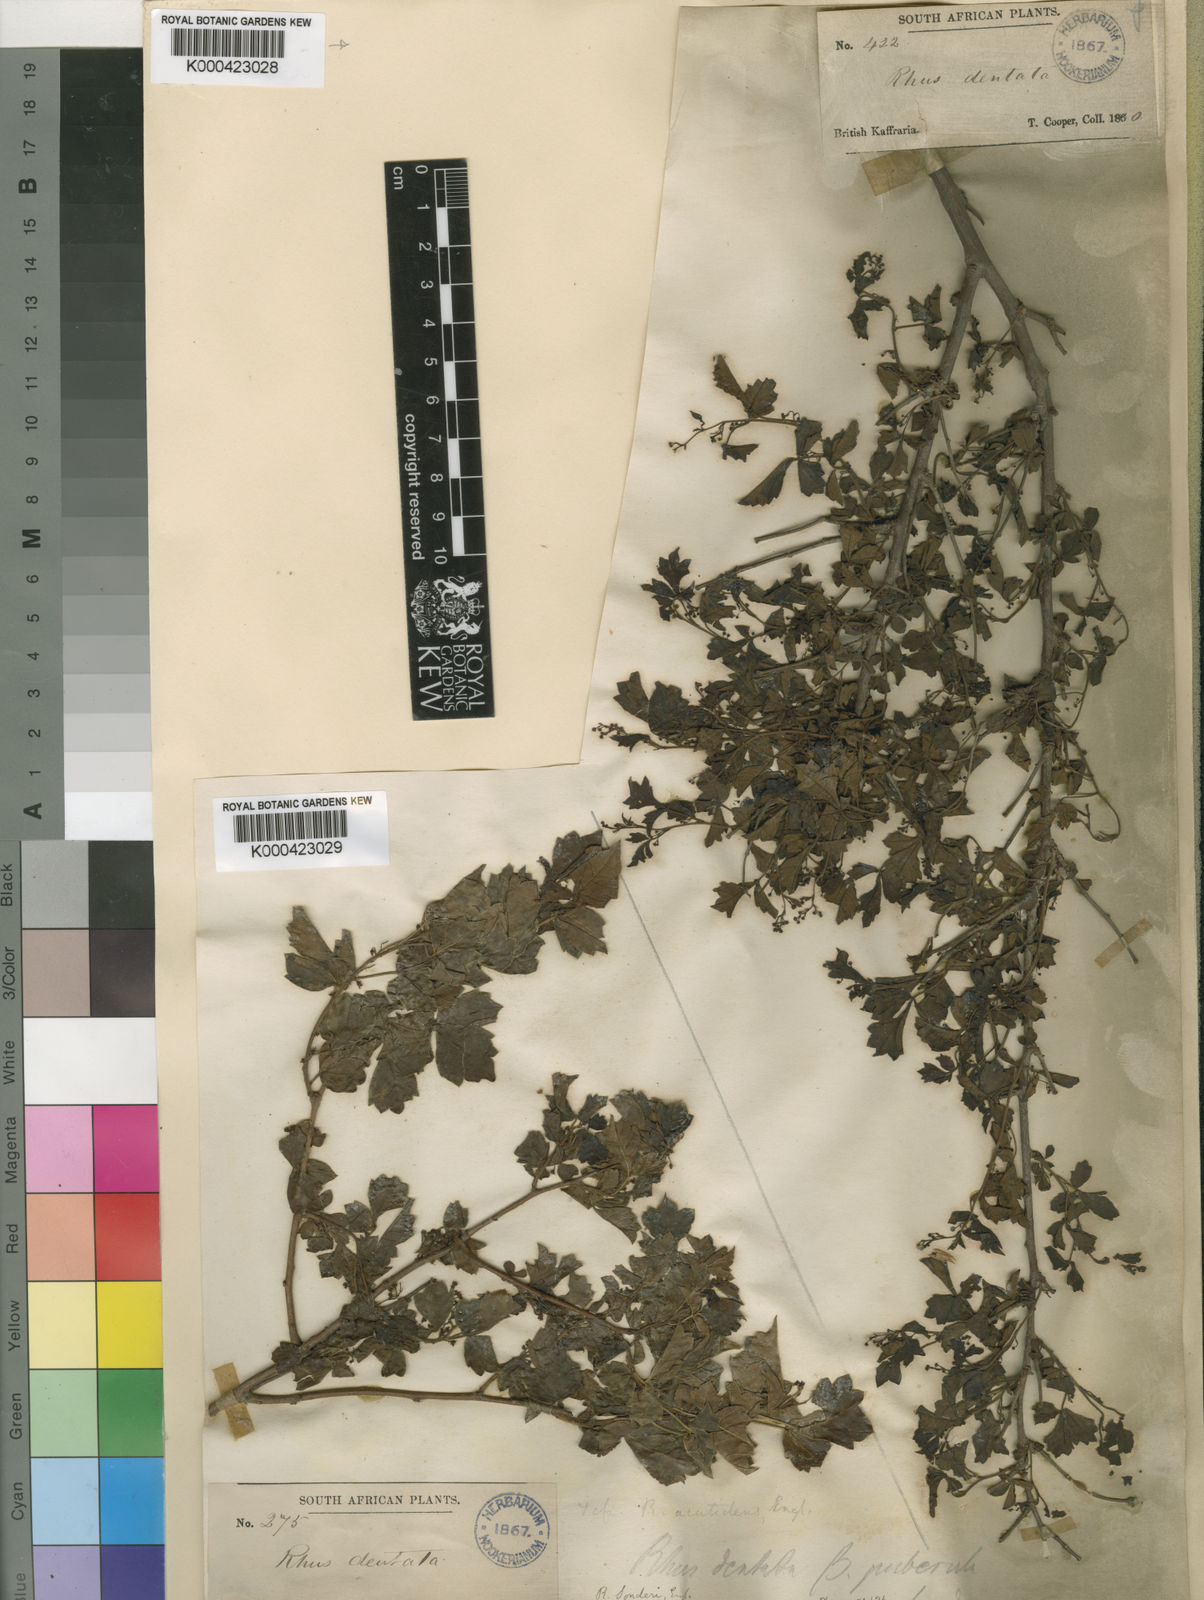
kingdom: Plantae
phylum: Tracheophyta
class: Magnoliopsida
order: Sapindales
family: Anacardiaceae
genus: Searsia
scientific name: Searsia dentata
